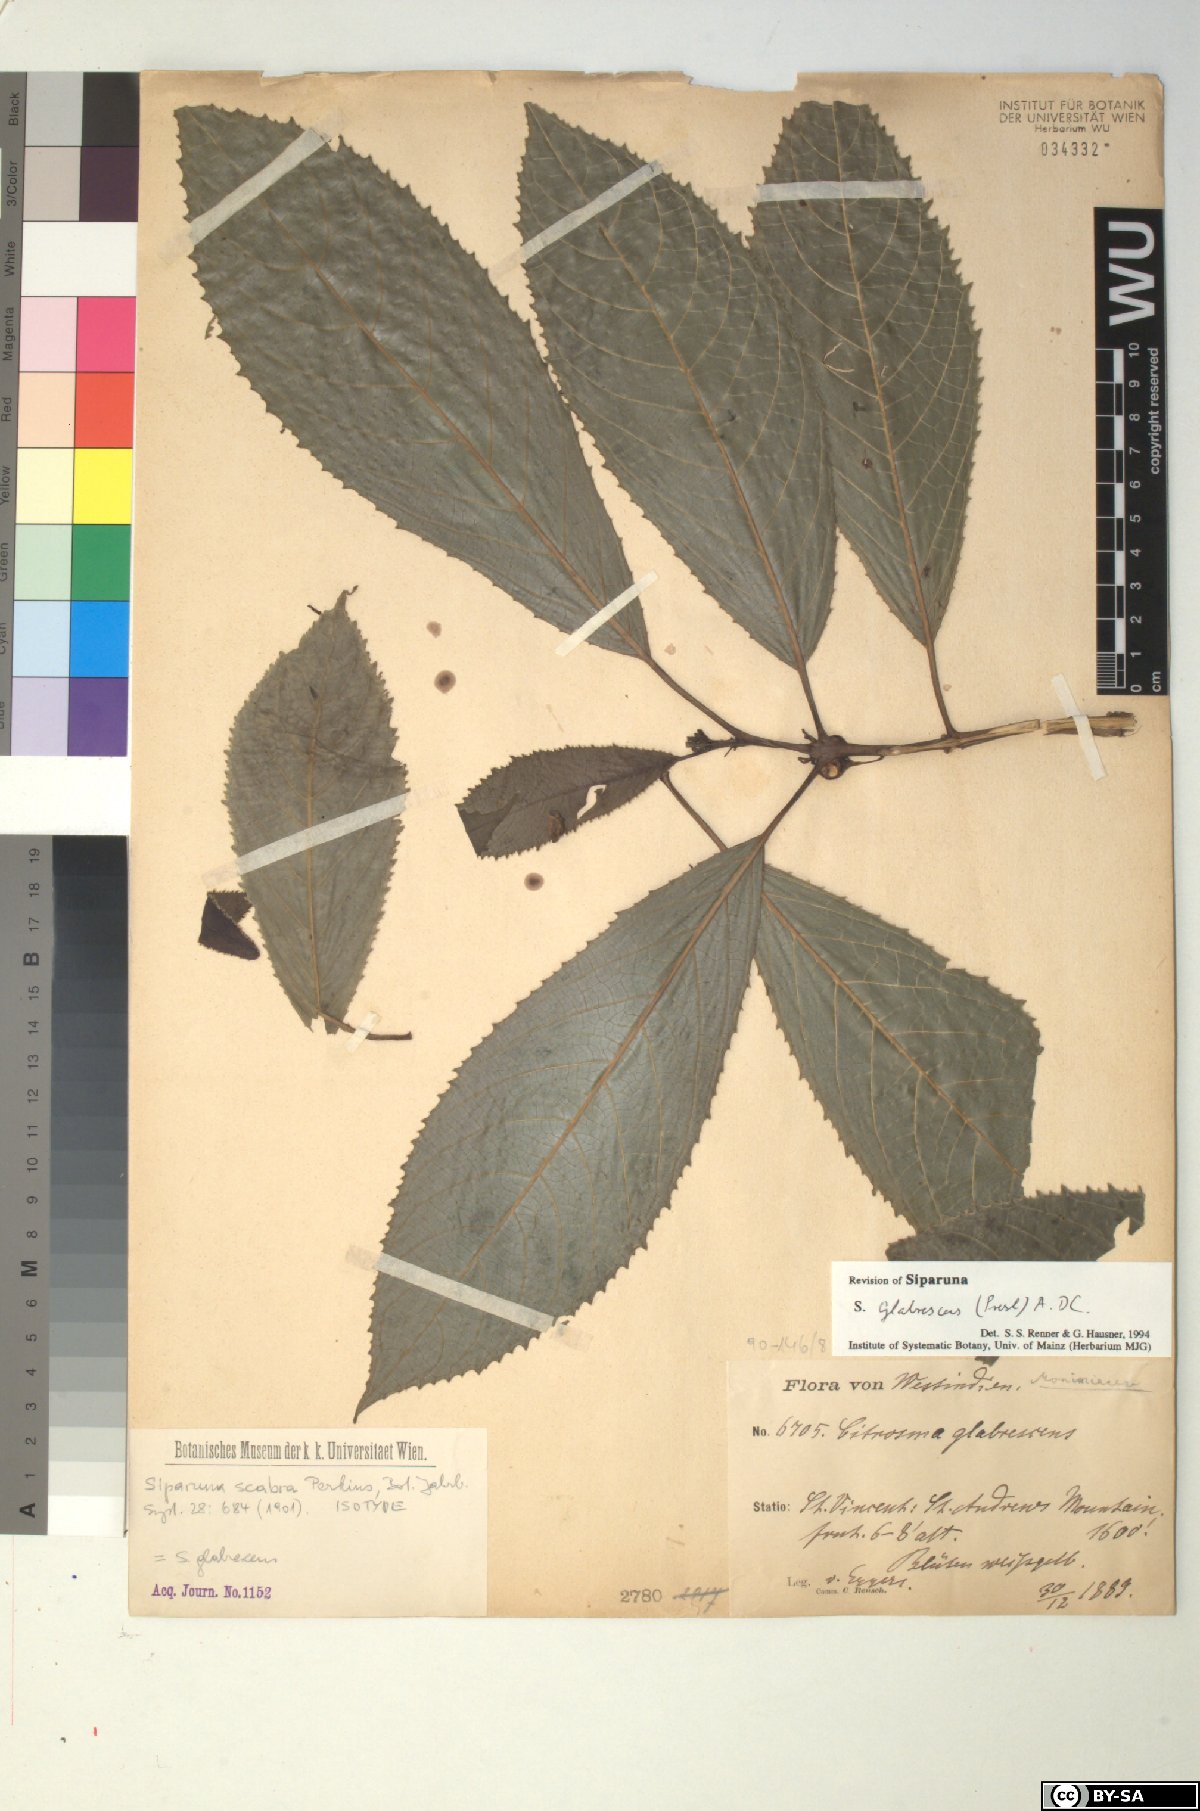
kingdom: Plantae
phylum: Tracheophyta
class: Magnoliopsida
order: Laurales
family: Siparunaceae
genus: Siparuna
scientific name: Siparuna glabrescens
